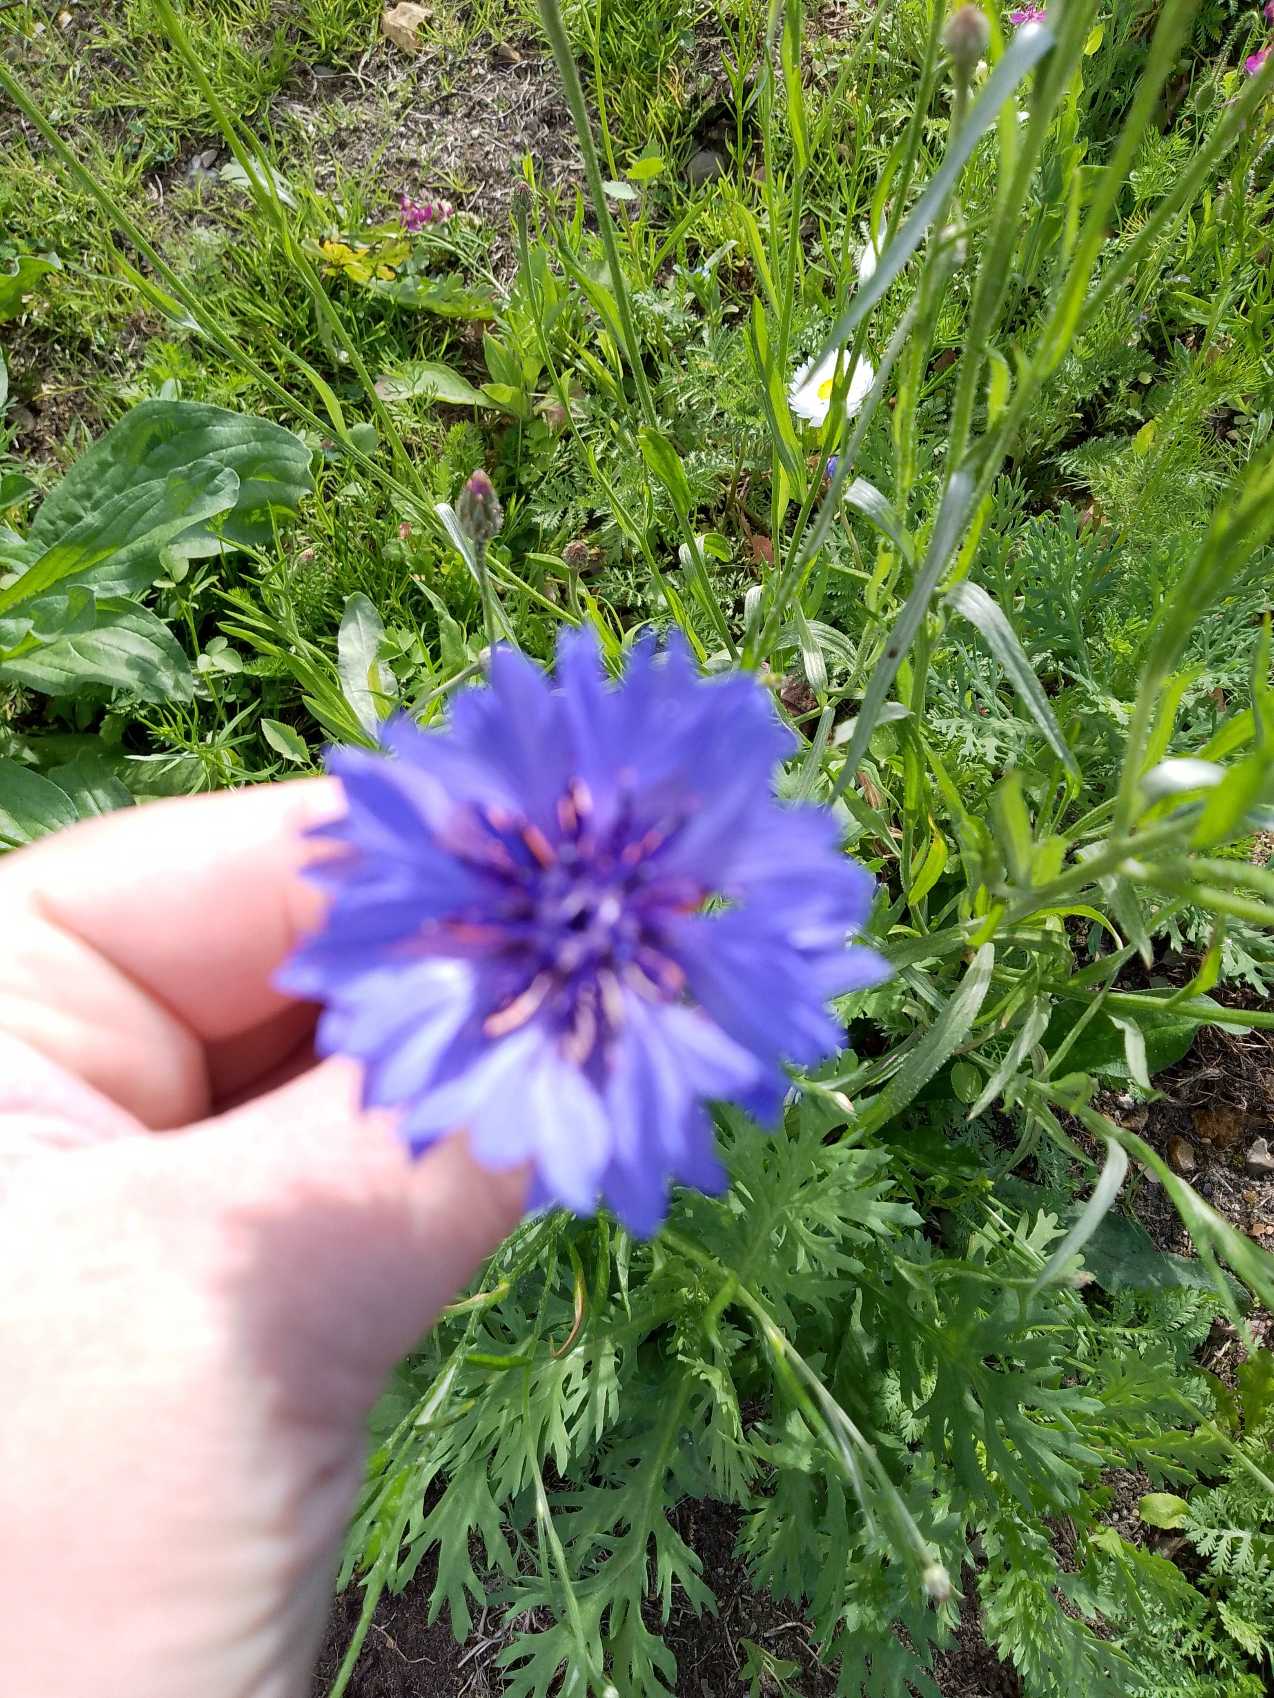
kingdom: Plantae
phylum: Tracheophyta
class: Magnoliopsida
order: Asterales
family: Asteraceae
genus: Centaurea
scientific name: Centaurea cyanus
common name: Kornblomst
